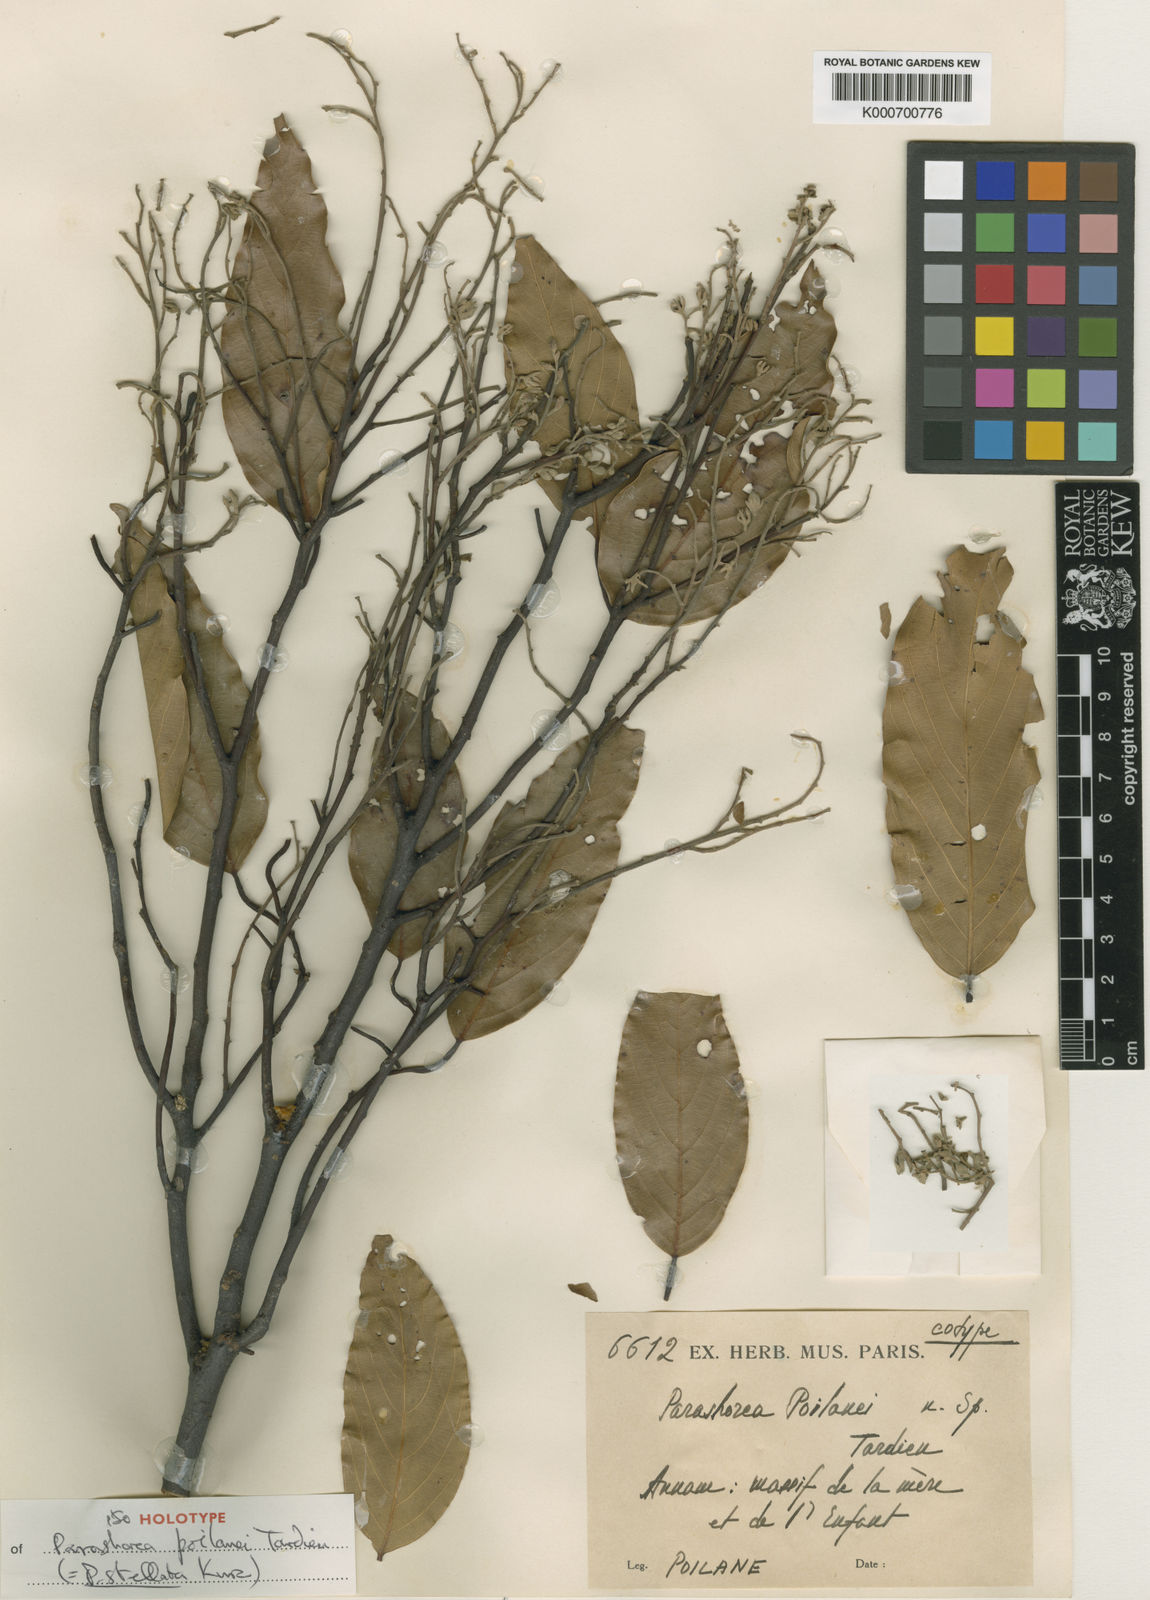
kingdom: Plantae
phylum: Tracheophyta
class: Magnoliopsida
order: Malvales
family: Dipterocarpaceae
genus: Parashorea
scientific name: Parashorea stellata
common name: Thinkadu
